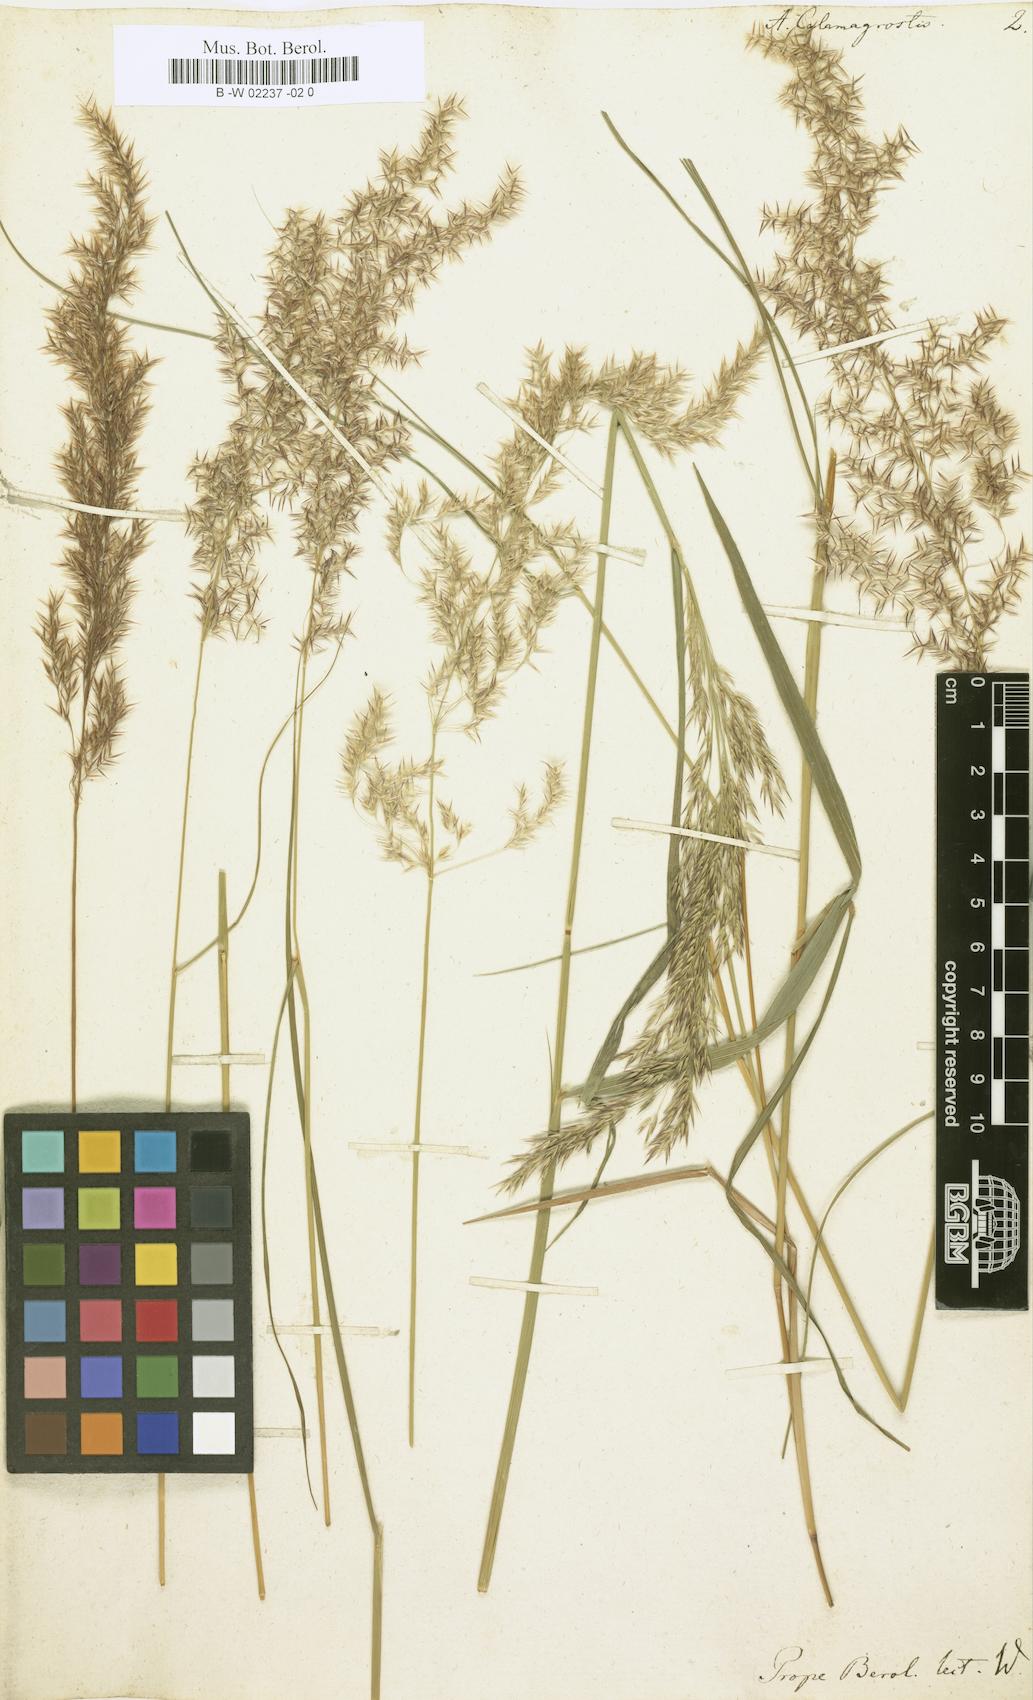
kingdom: Plantae
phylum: Tracheophyta
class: Liliopsida
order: Poales
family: Poaceae
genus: Arundo
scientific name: Arundo calamagrostis
